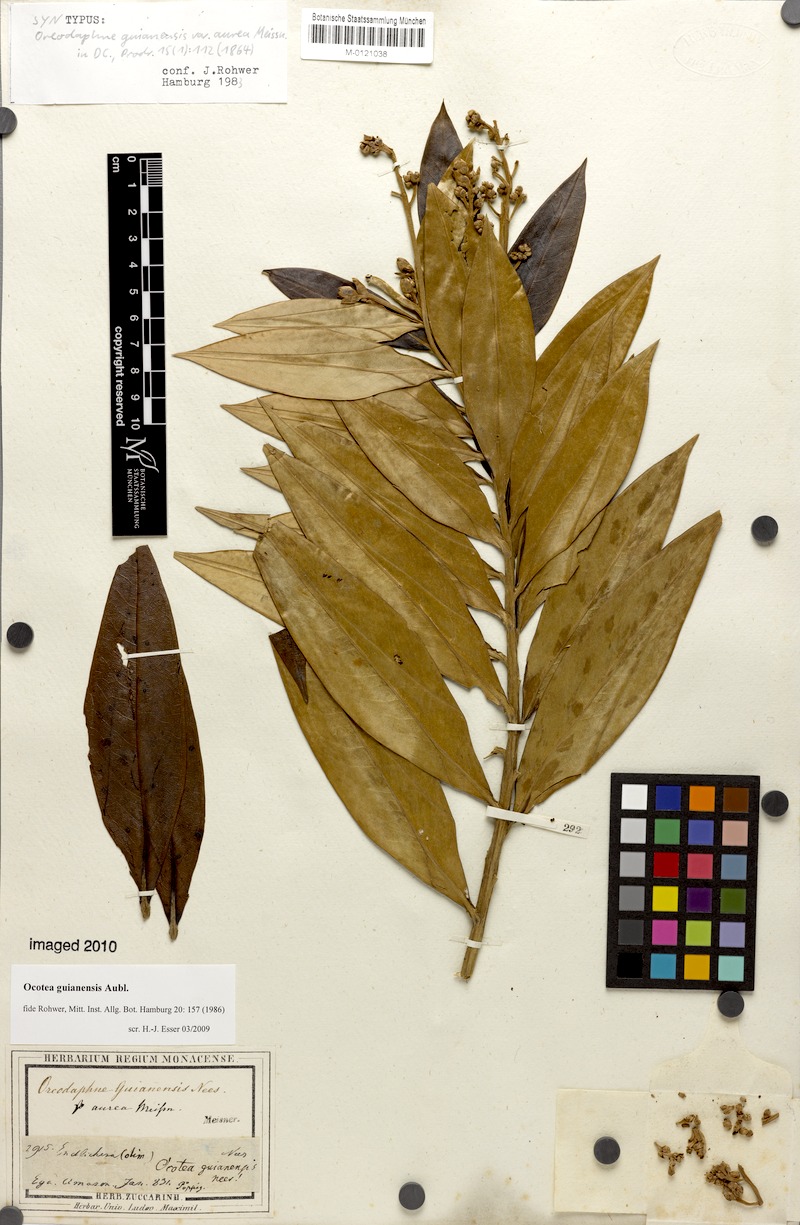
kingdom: Plantae
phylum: Tracheophyta
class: Magnoliopsida
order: Laurales
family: Lauraceae
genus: Ocotea
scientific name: Ocotea guianensis
